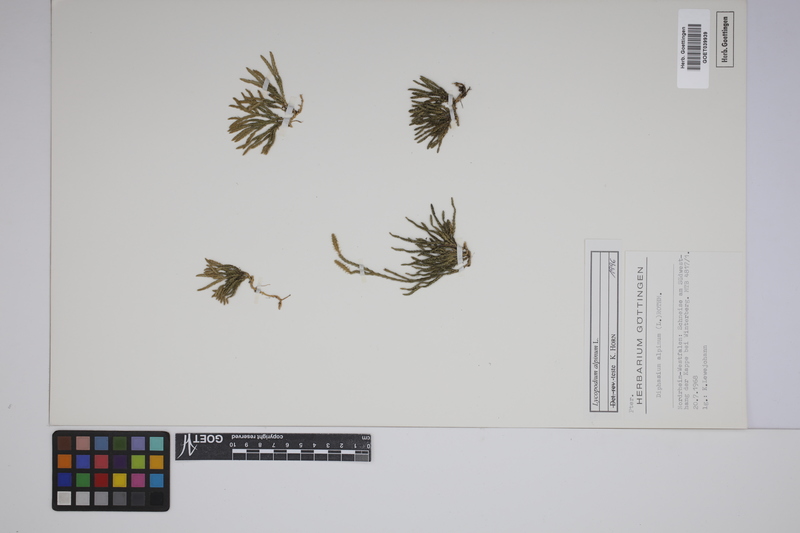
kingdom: Plantae
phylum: Tracheophyta
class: Lycopodiopsida
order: Lycopodiales
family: Lycopodiaceae
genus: Diphasiastrum
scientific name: Diphasiastrum alpinum
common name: Alpine clubmoss
